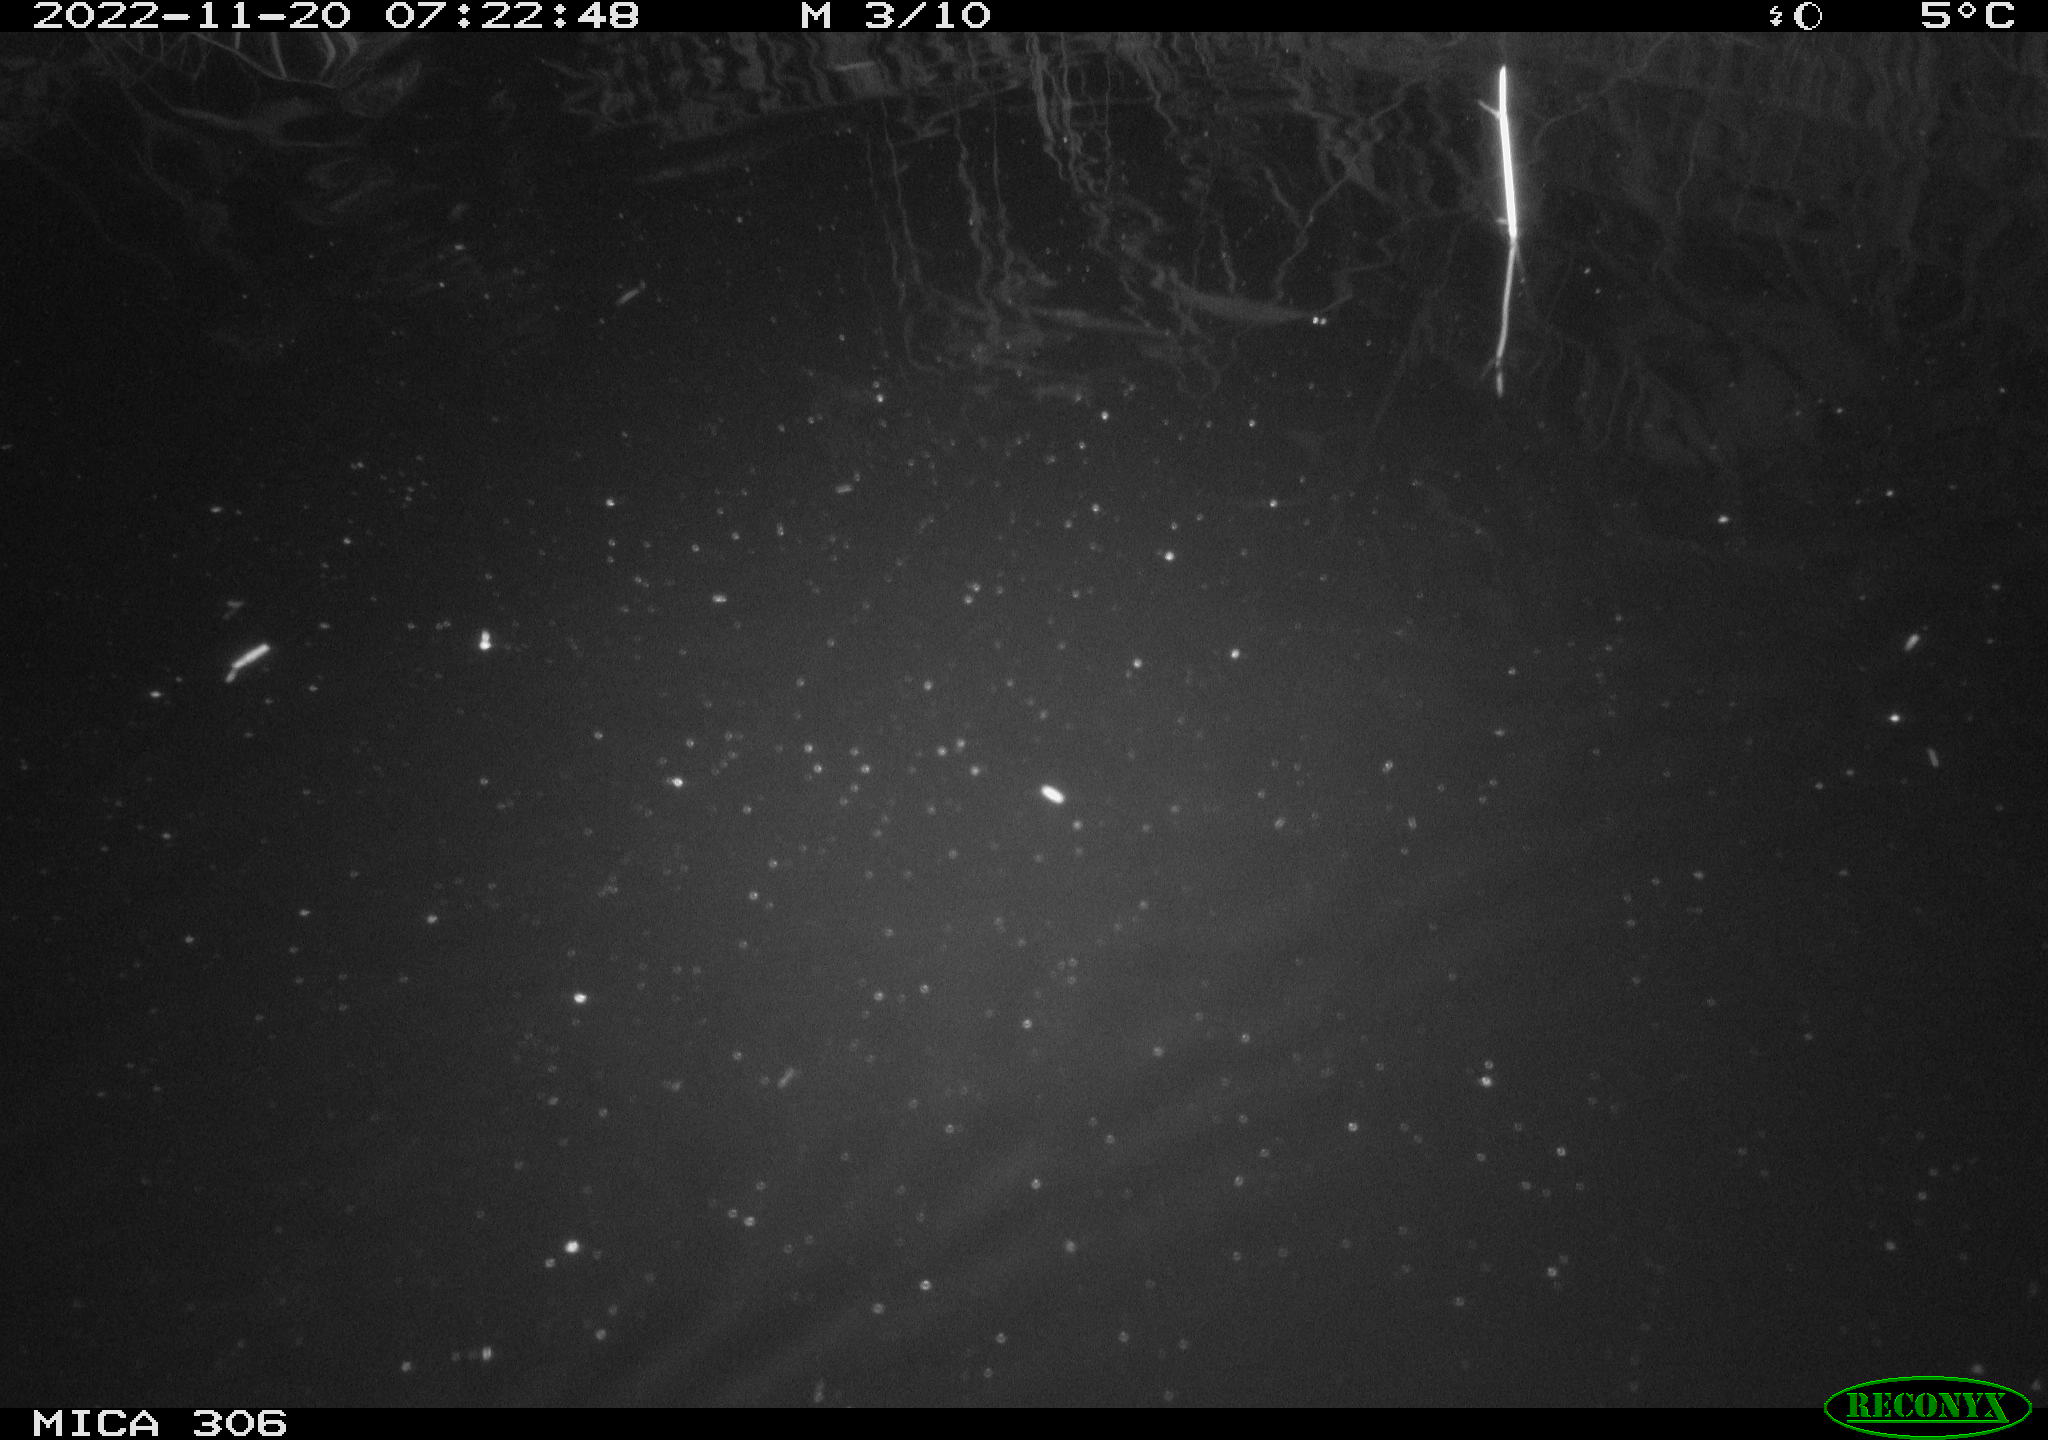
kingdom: Animalia
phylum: Chordata
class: Mammalia
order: Rodentia
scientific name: Rodentia
